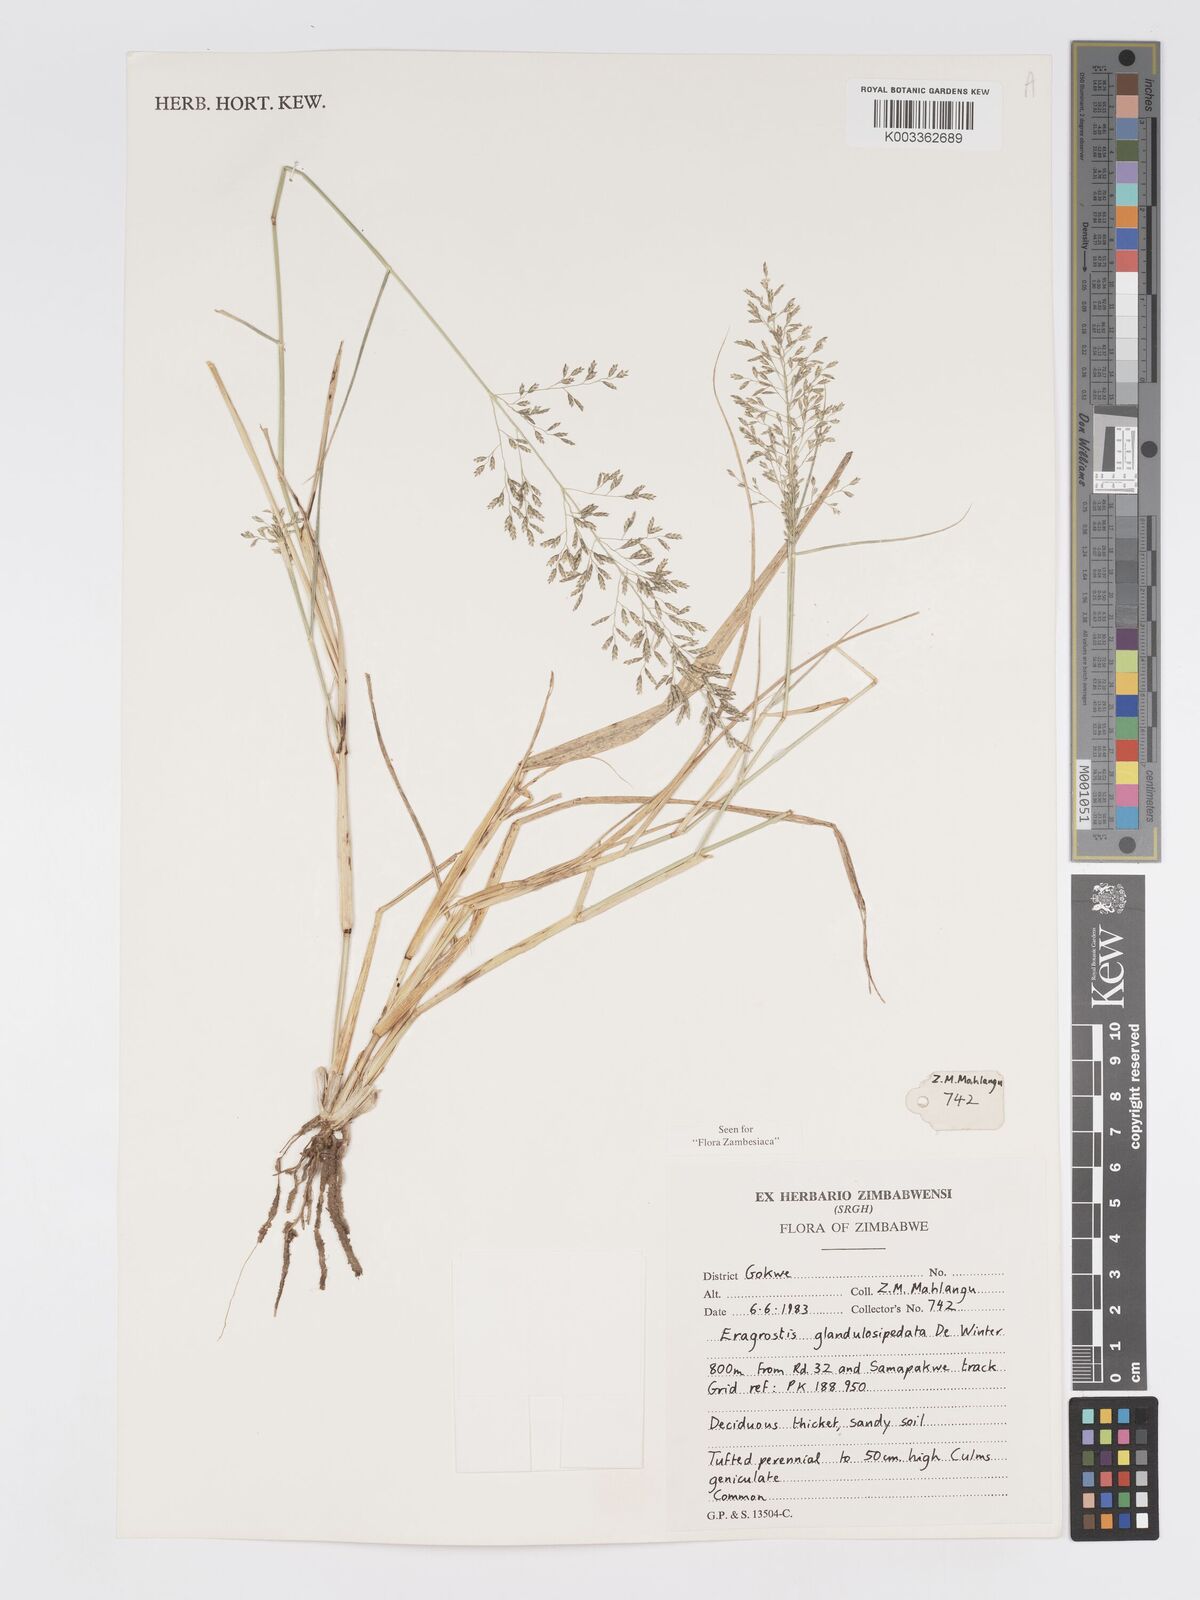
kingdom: Plantae
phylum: Tracheophyta
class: Liliopsida
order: Poales
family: Poaceae
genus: Eragrostis
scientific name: Eragrostis glandulosipedata
